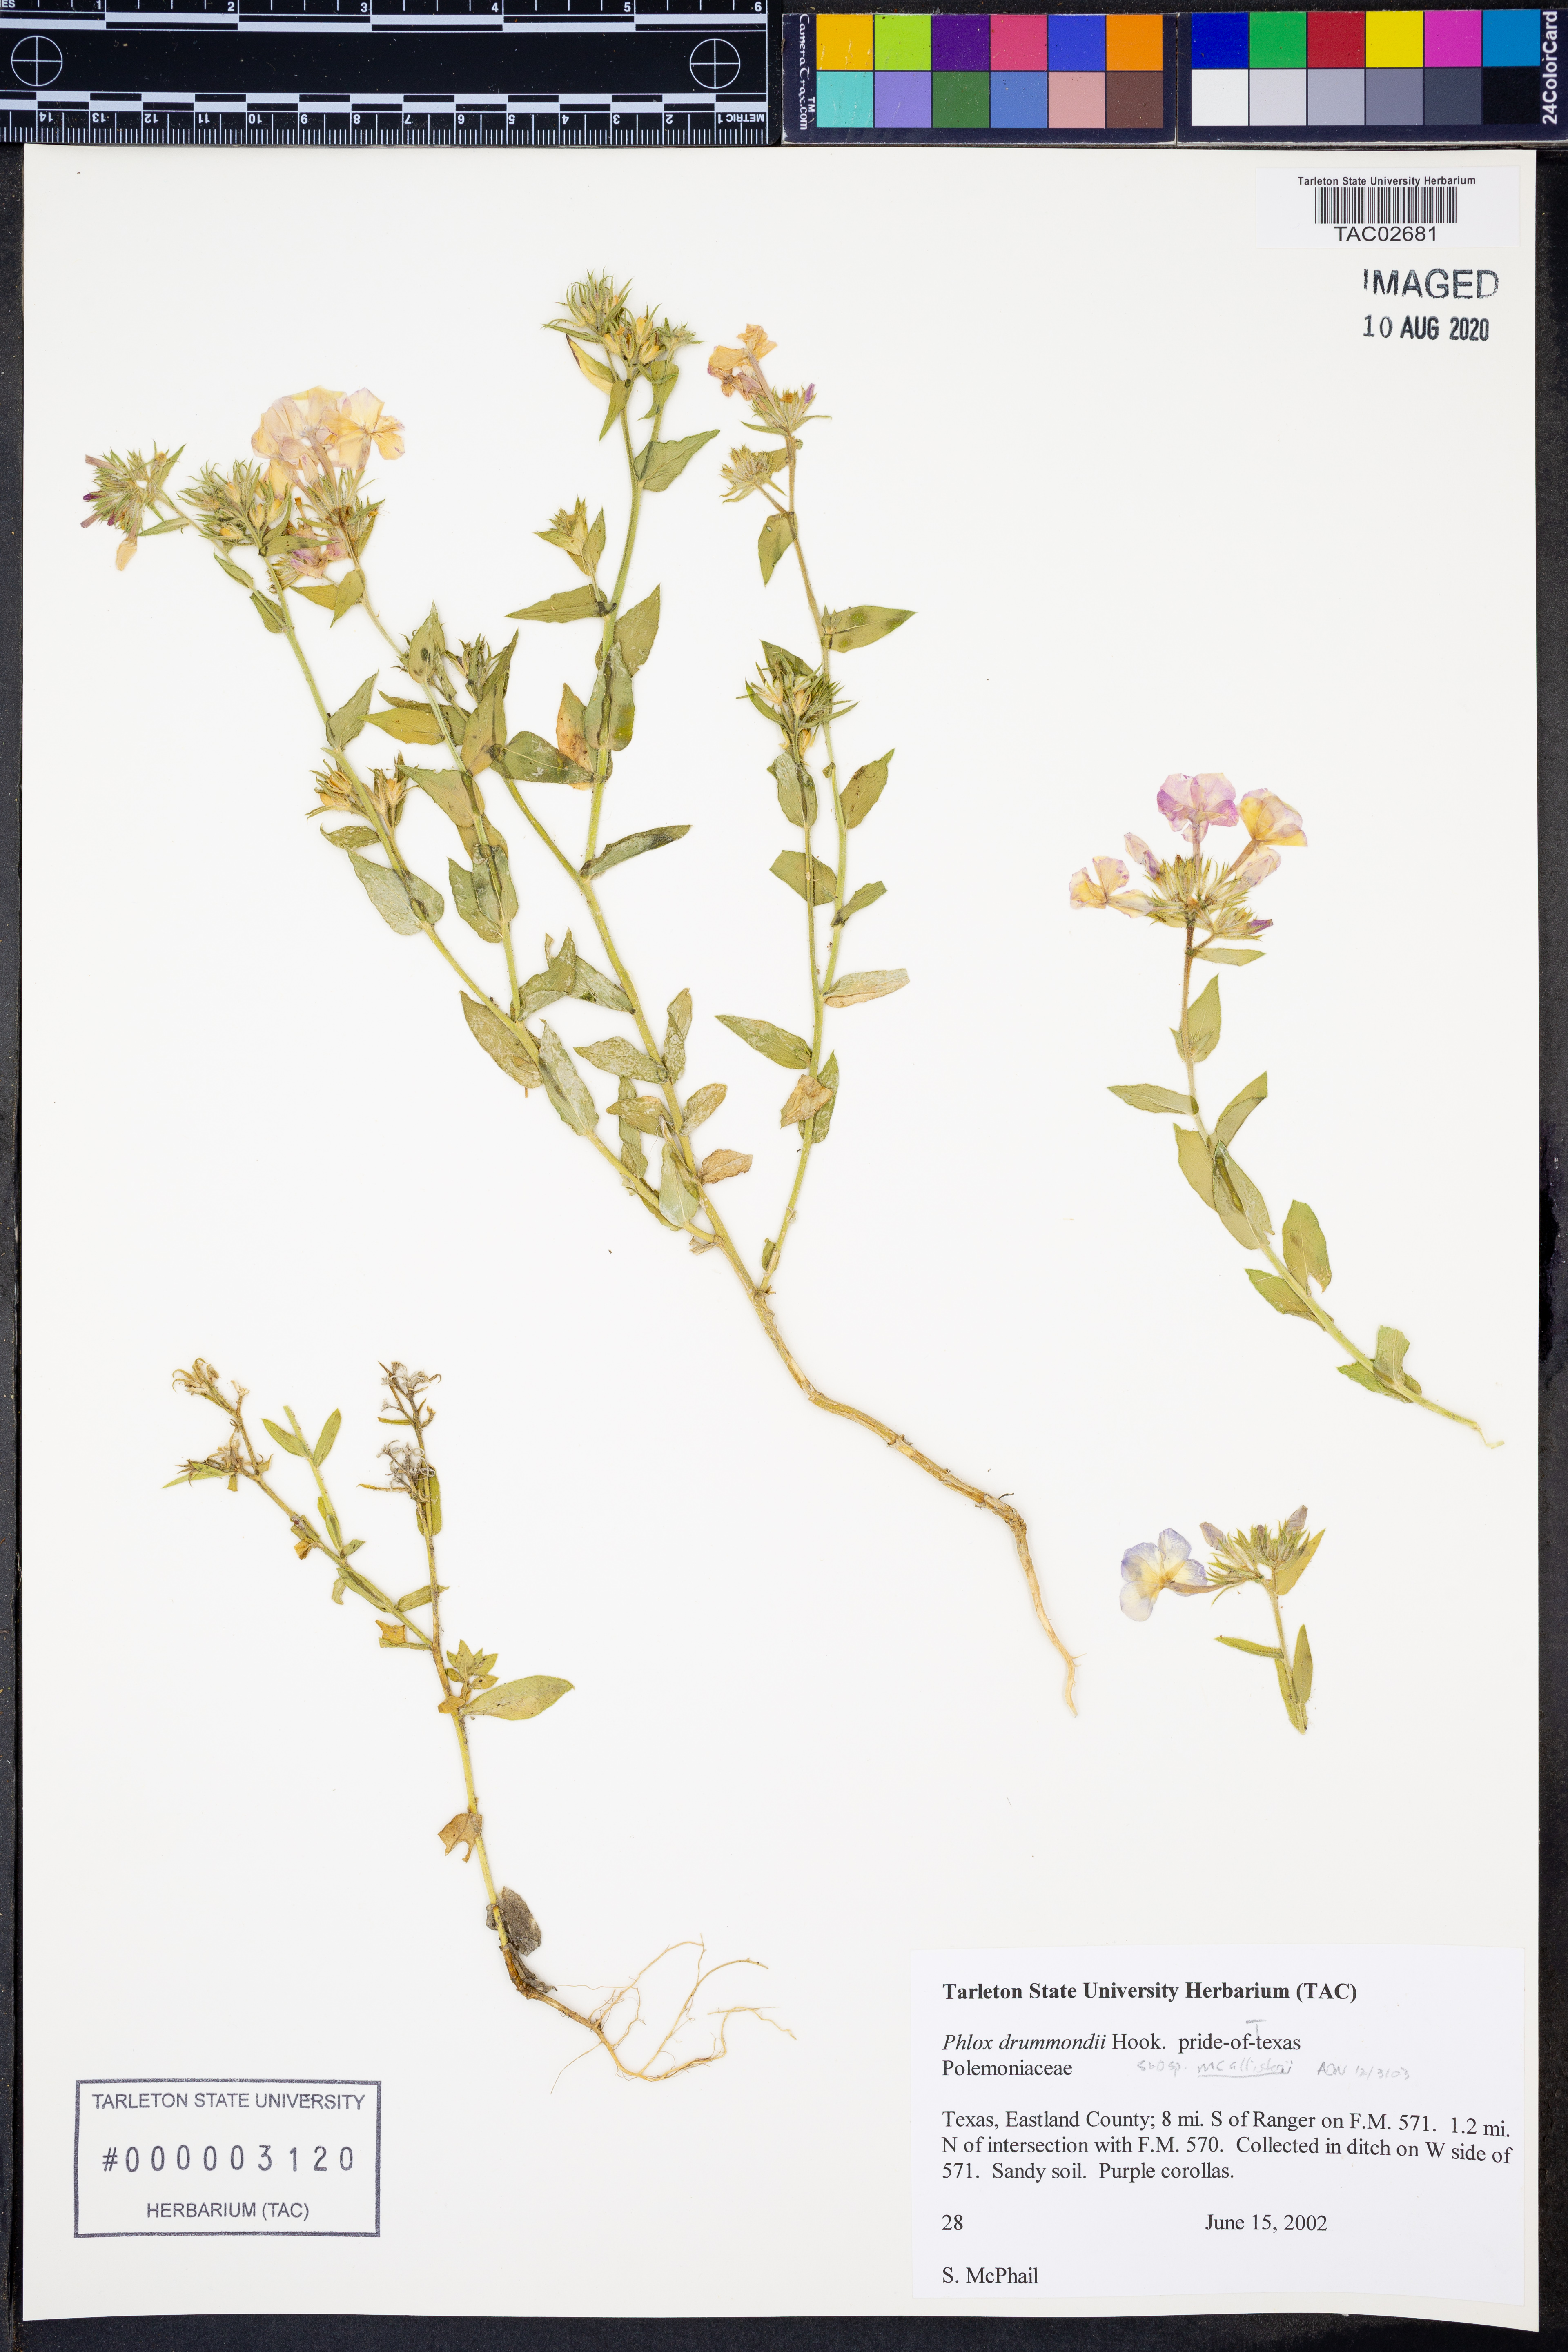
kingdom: Plantae
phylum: Tracheophyta
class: Magnoliopsida
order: Ericales
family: Polemoniaceae
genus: Phlox
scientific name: Phlox drummondii
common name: Drummond's phlox
